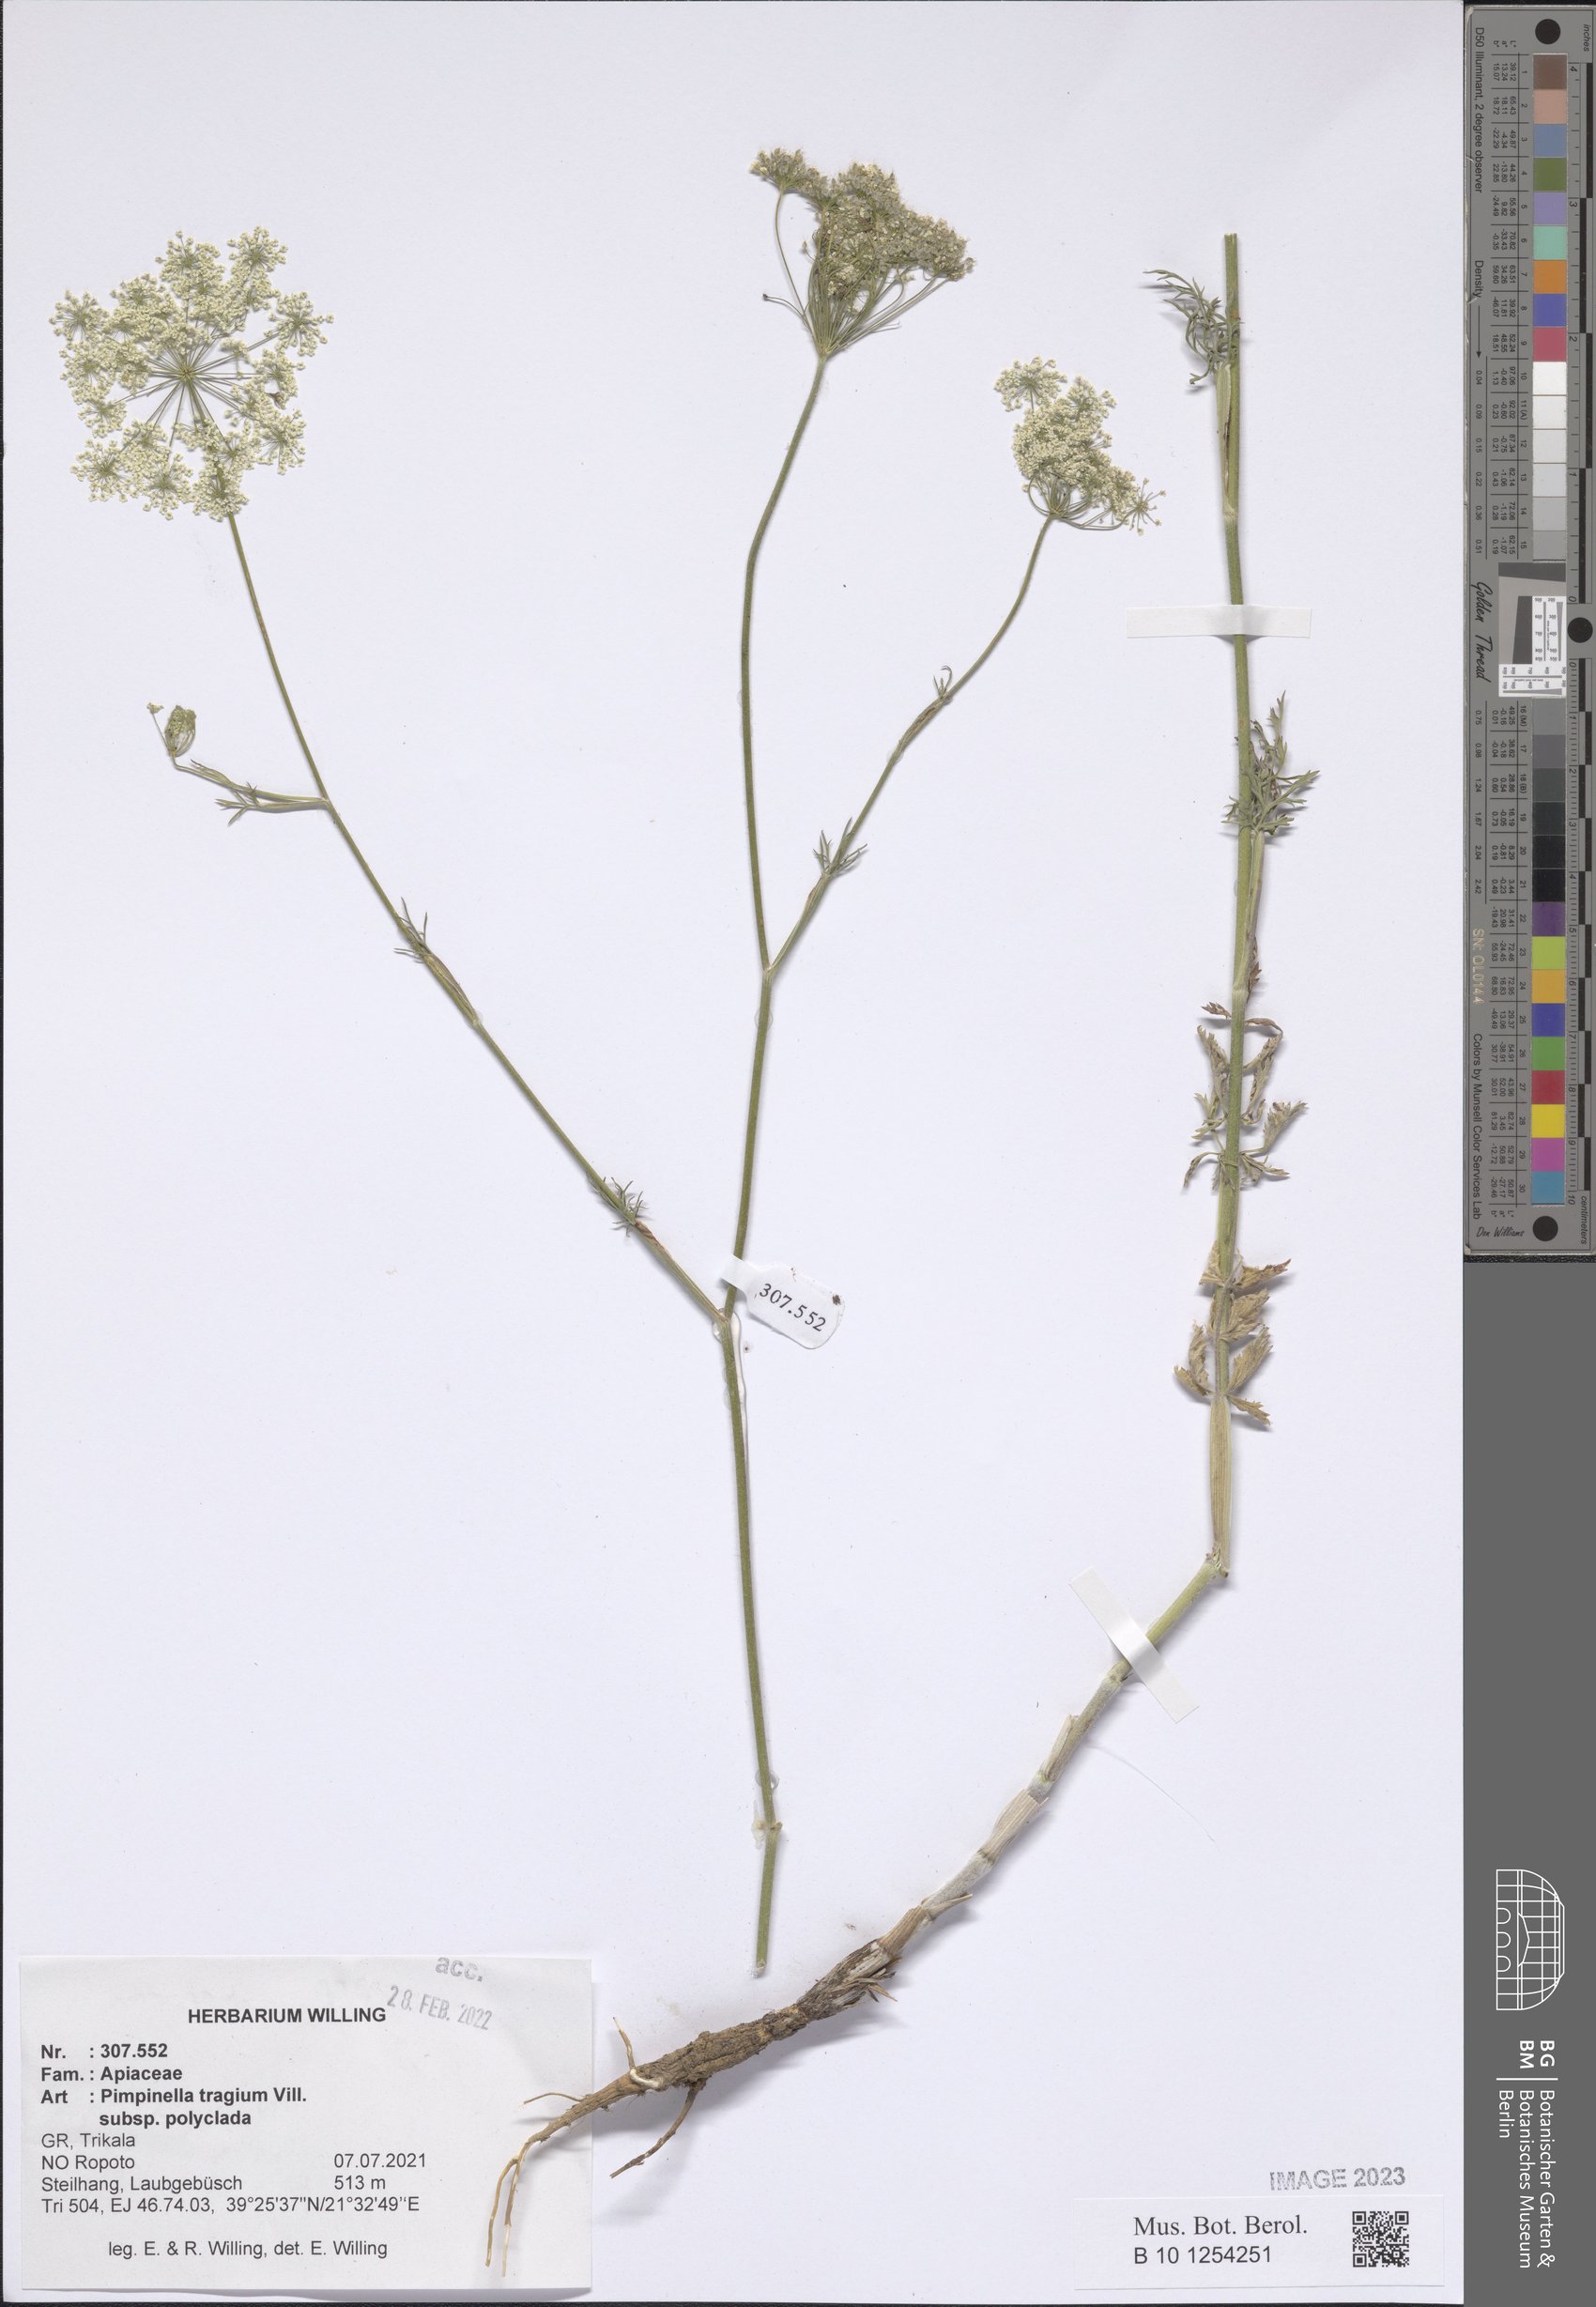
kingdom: Plantae
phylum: Tracheophyta
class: Magnoliopsida
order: Apiales
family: Apiaceae
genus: Pimpinella
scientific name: Pimpinella tragium
